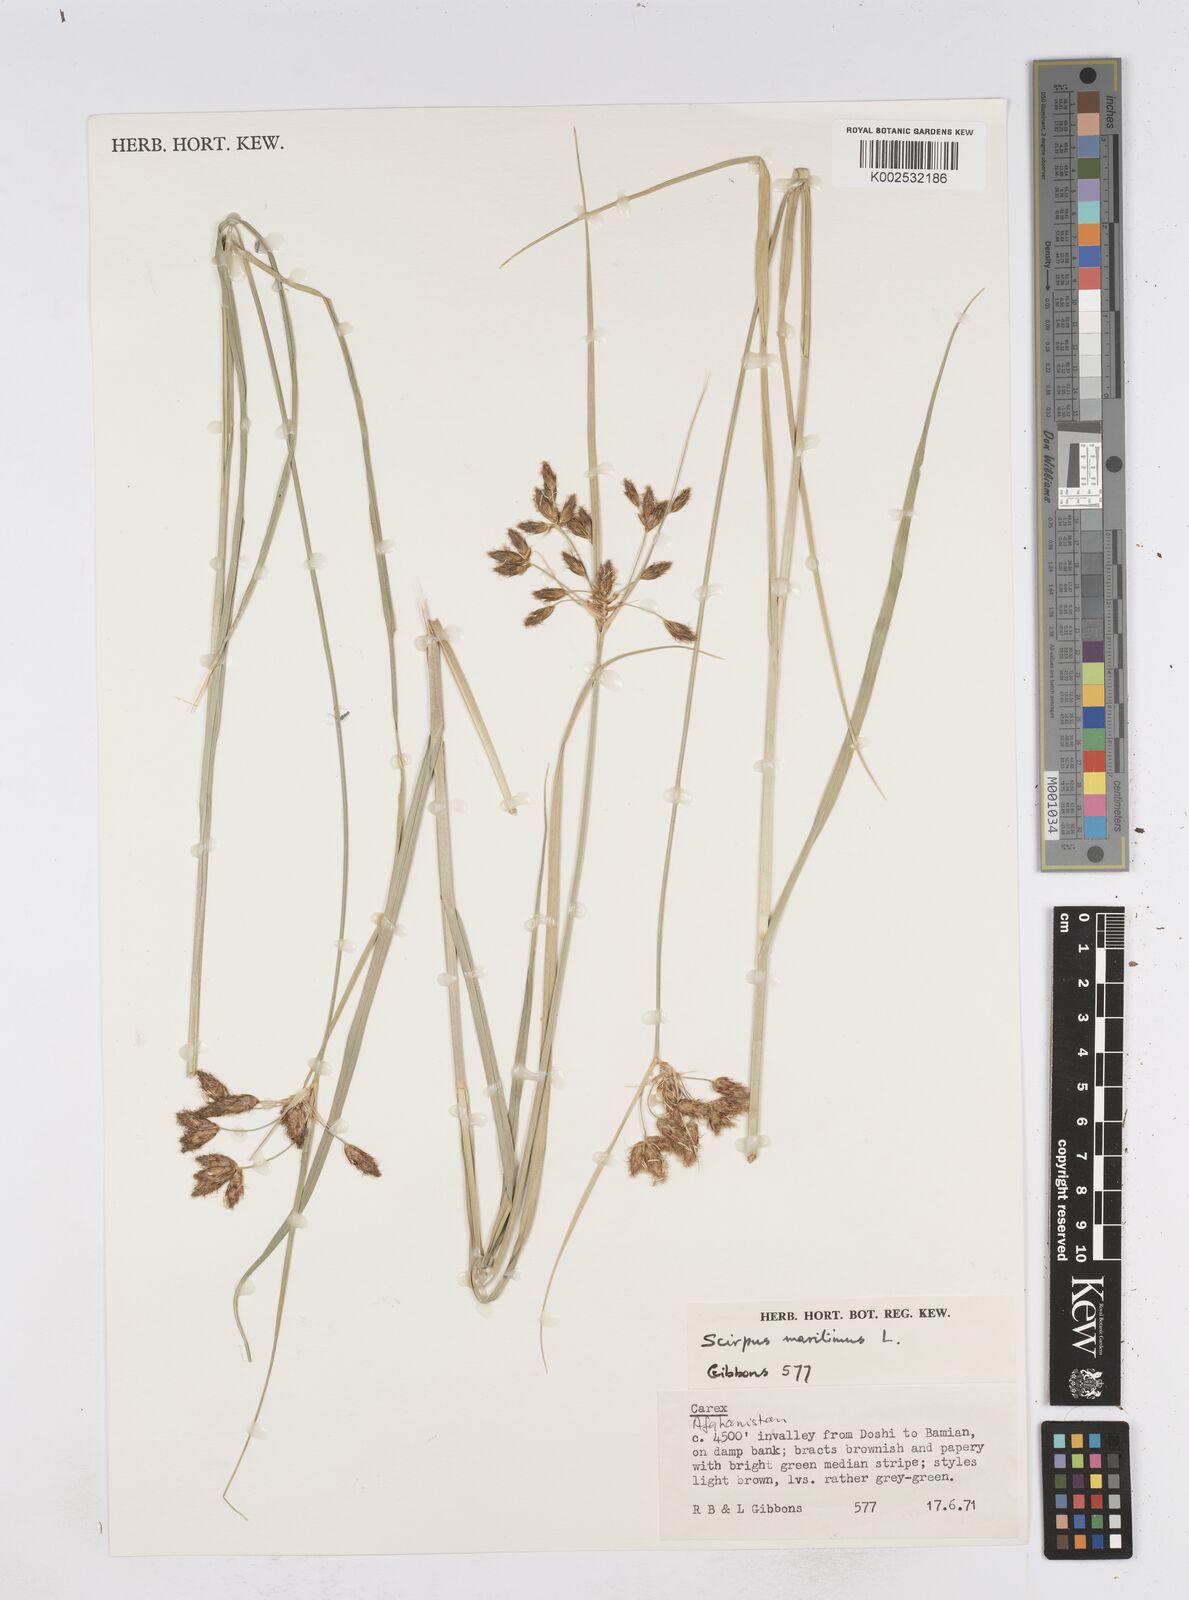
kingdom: Plantae
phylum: Tracheophyta
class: Liliopsida
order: Poales
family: Cyperaceae
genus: Bolboschoenus
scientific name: Bolboschoenus maritimus
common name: Sea club-rush
